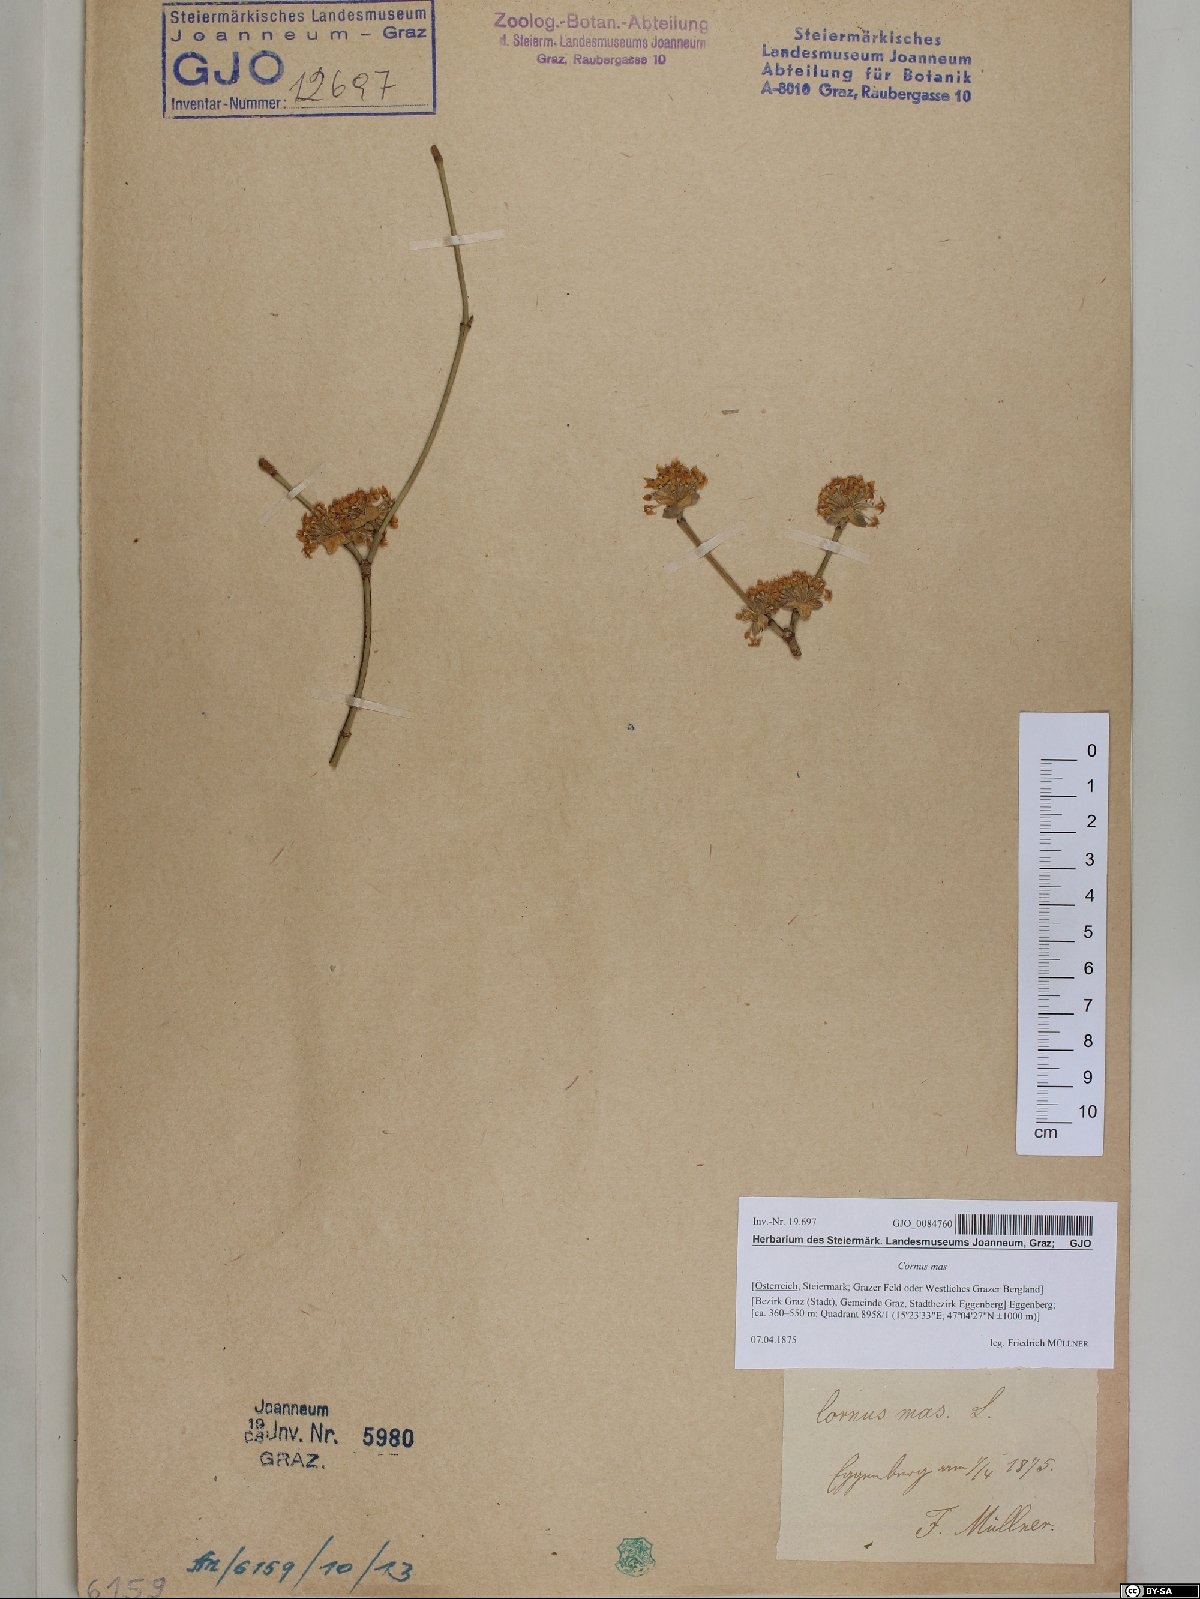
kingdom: Plantae
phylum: Tracheophyta
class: Magnoliopsida
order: Cornales
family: Cornaceae
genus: Cornus
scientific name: Cornus mas
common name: Cornelian-cherry
